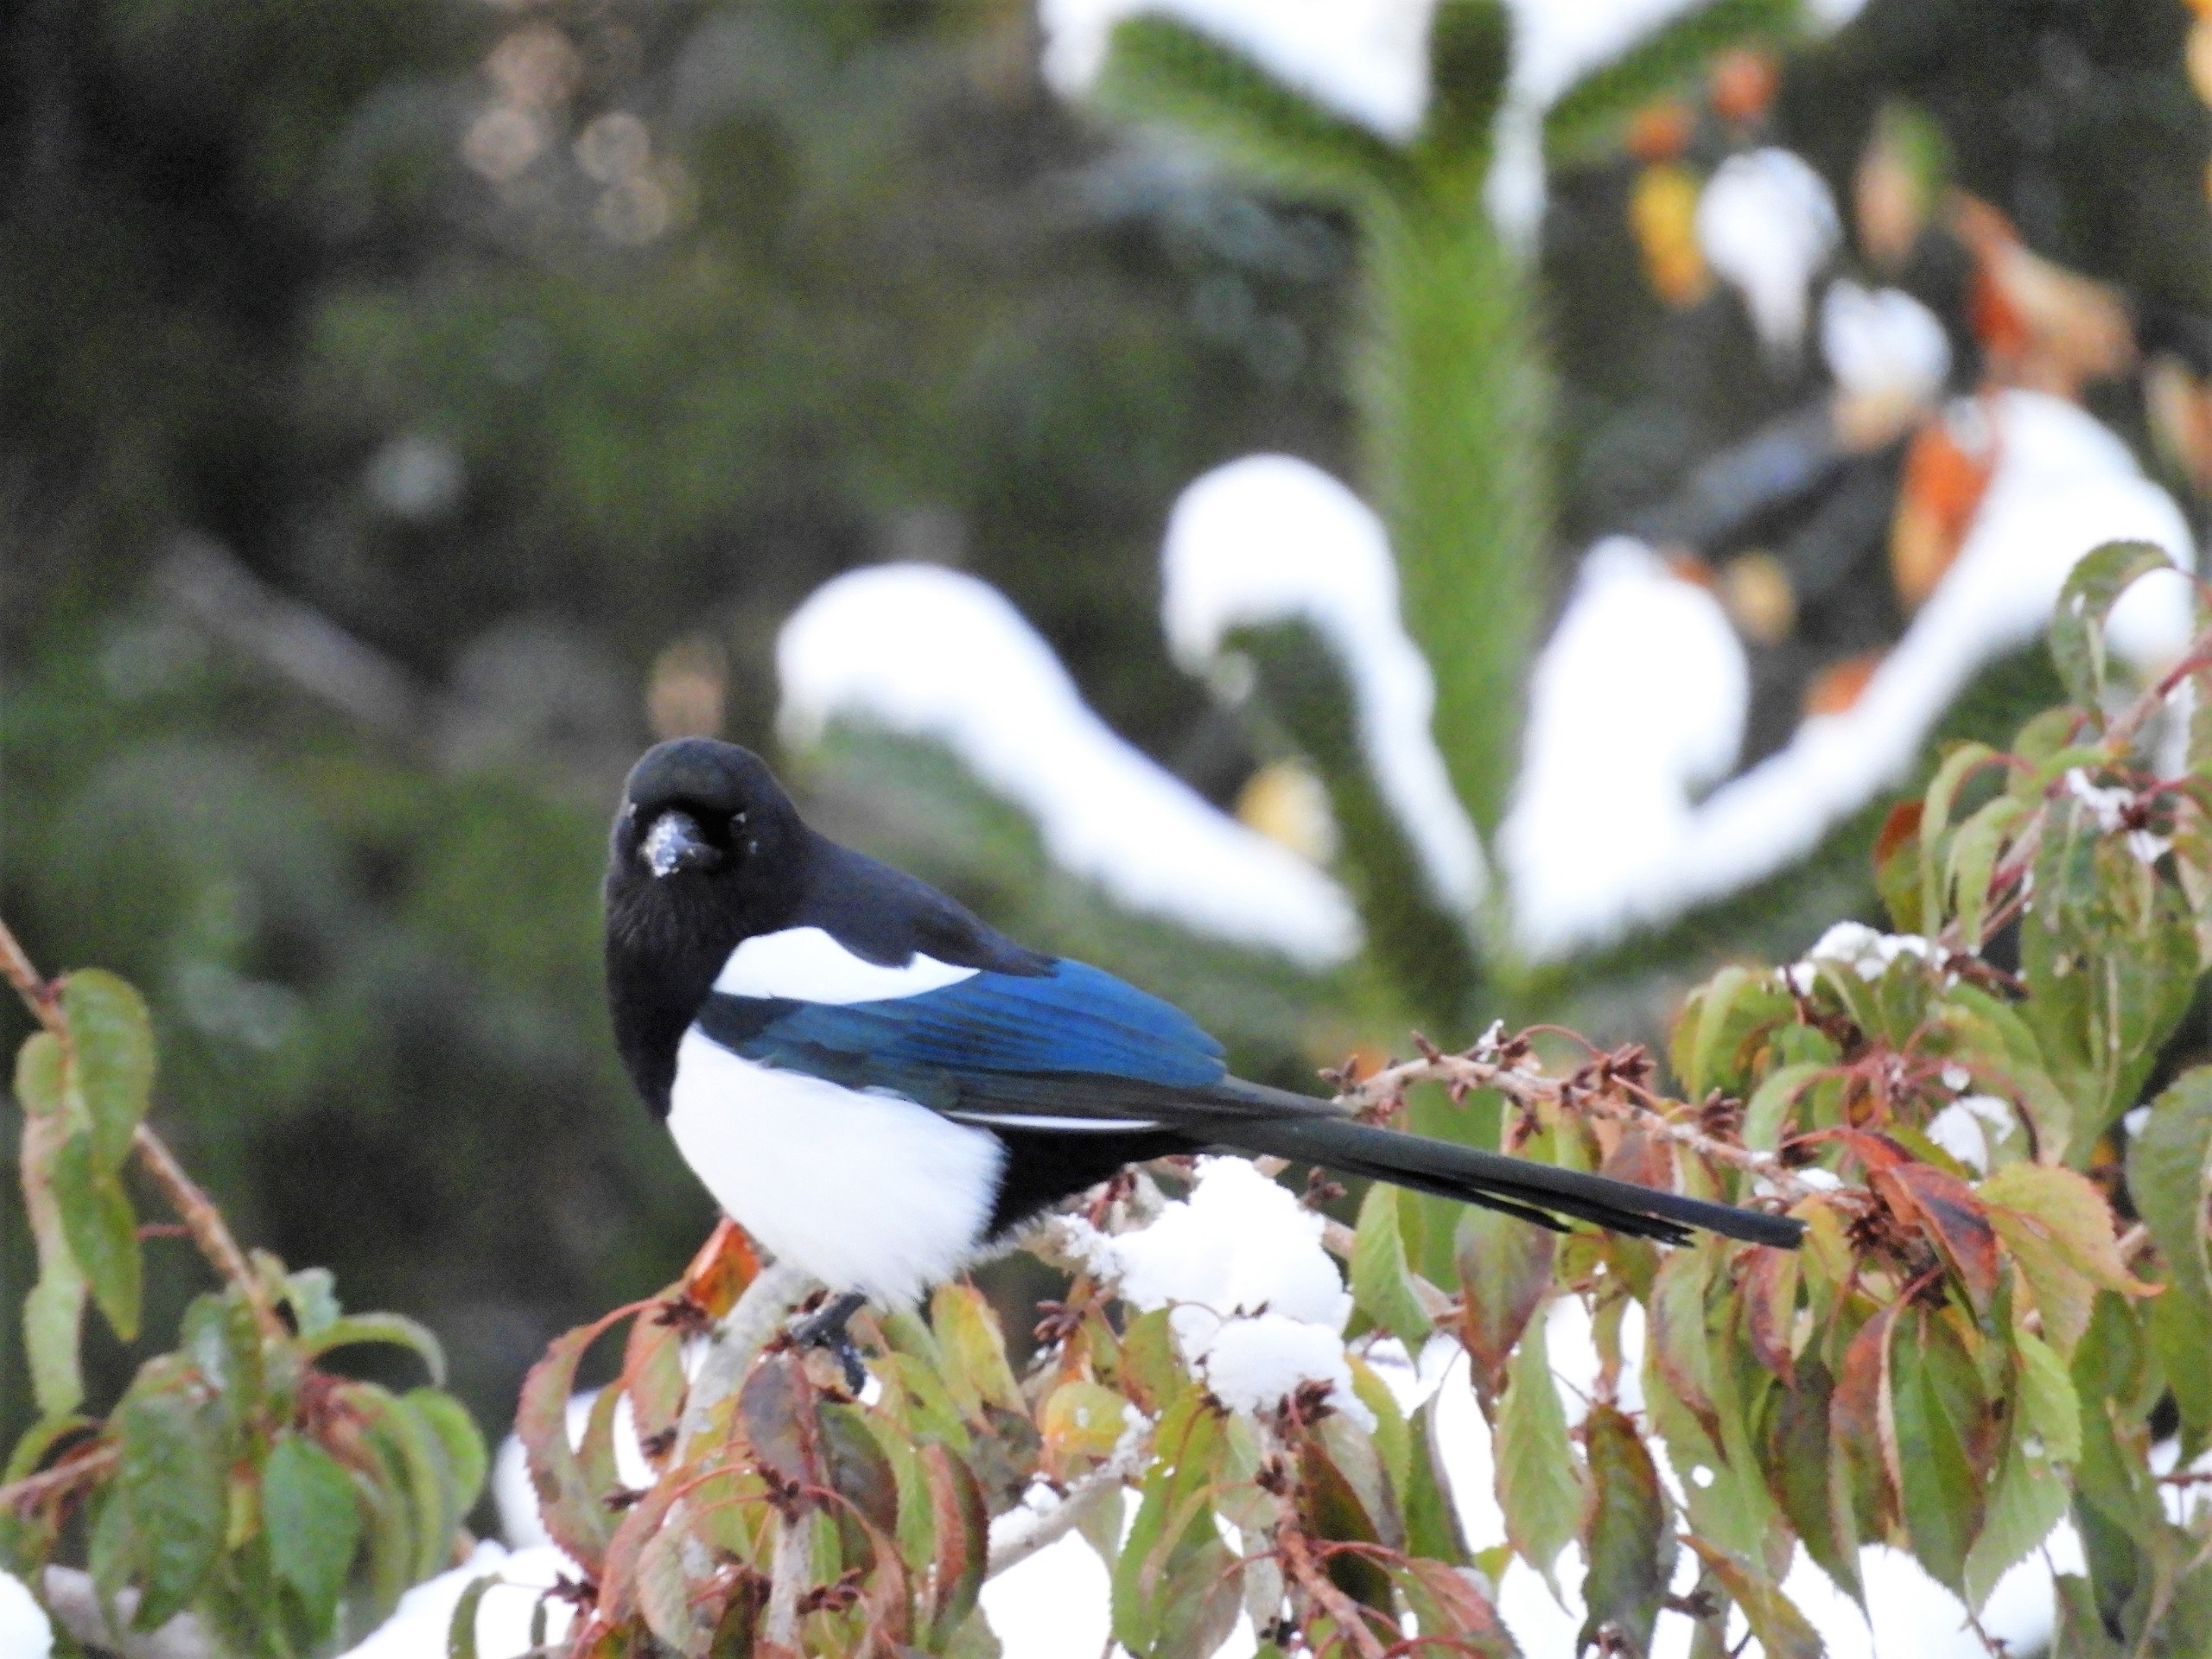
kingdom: Animalia
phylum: Chordata
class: Aves
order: Passeriformes
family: Corvidae
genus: Pica
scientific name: Pica pica
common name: Husskade
